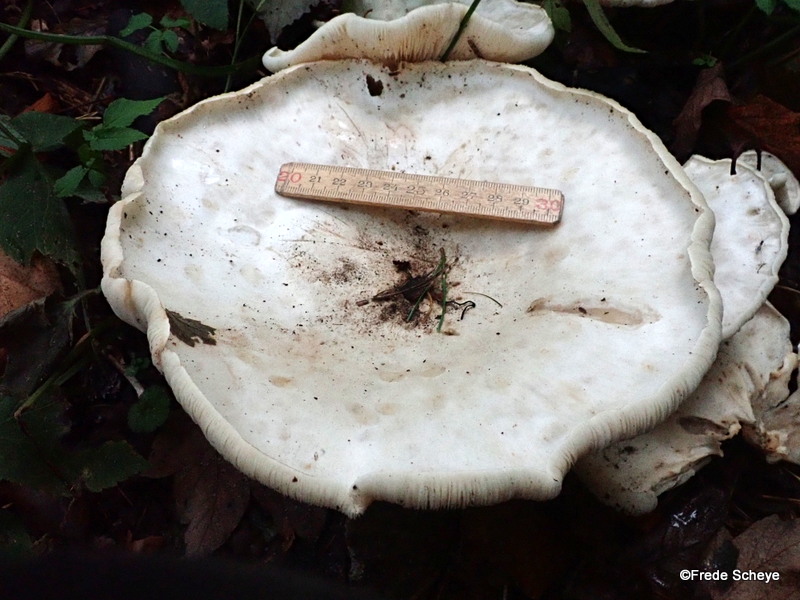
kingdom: Fungi
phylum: Basidiomycota
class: Agaricomycetes
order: Agaricales
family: Tricholomataceae
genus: Aspropaxillus
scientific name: Aspropaxillus giganteus
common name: kæmpe-tragtridderhat
